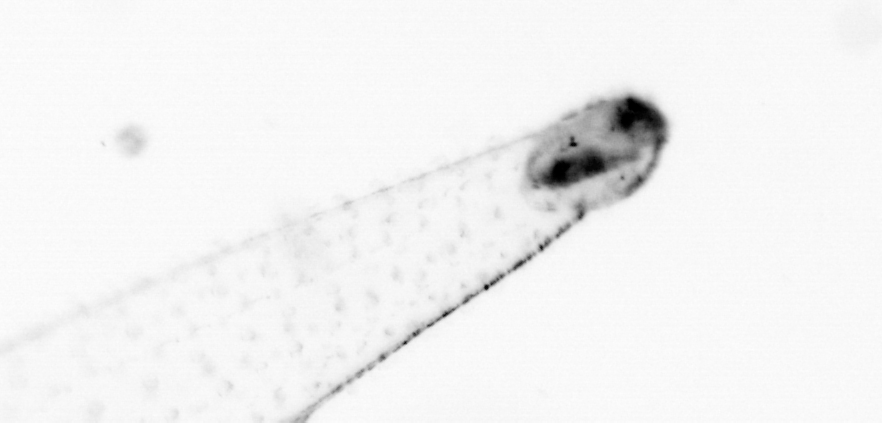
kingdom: Animalia
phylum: Chaetognatha
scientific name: Chaetognatha
